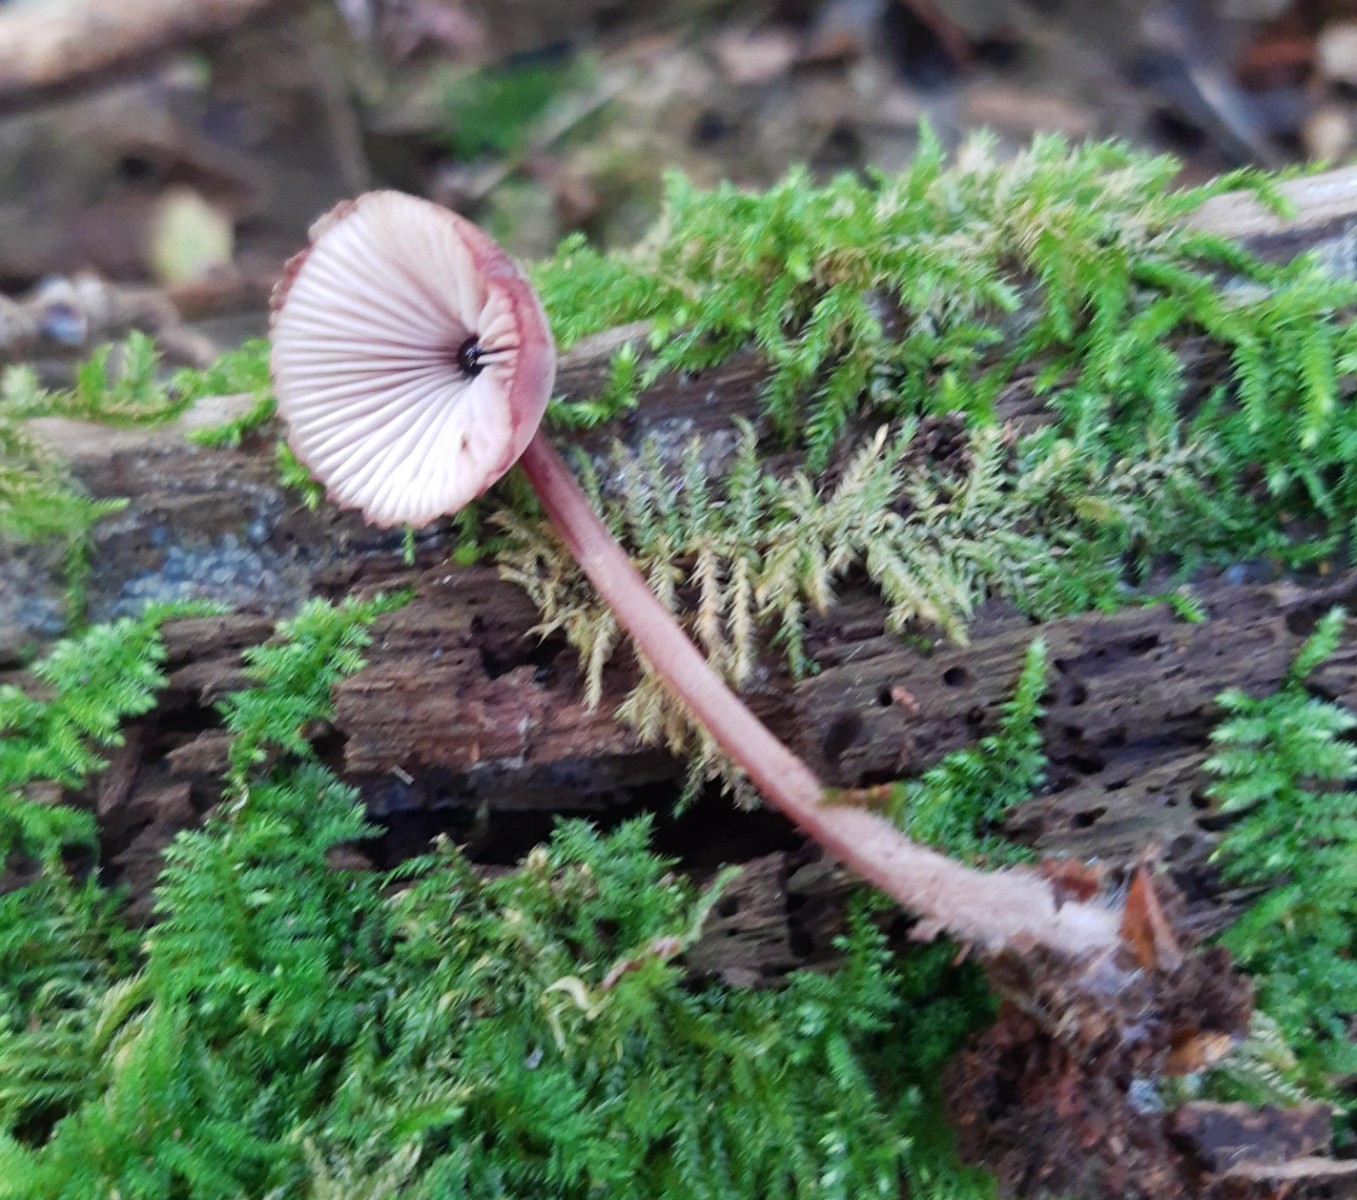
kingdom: Fungi
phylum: Basidiomycota
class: Agaricomycetes
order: Agaricales
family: Mycenaceae
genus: Mycena
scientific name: Mycena haematopus
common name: blødende huesvamp
